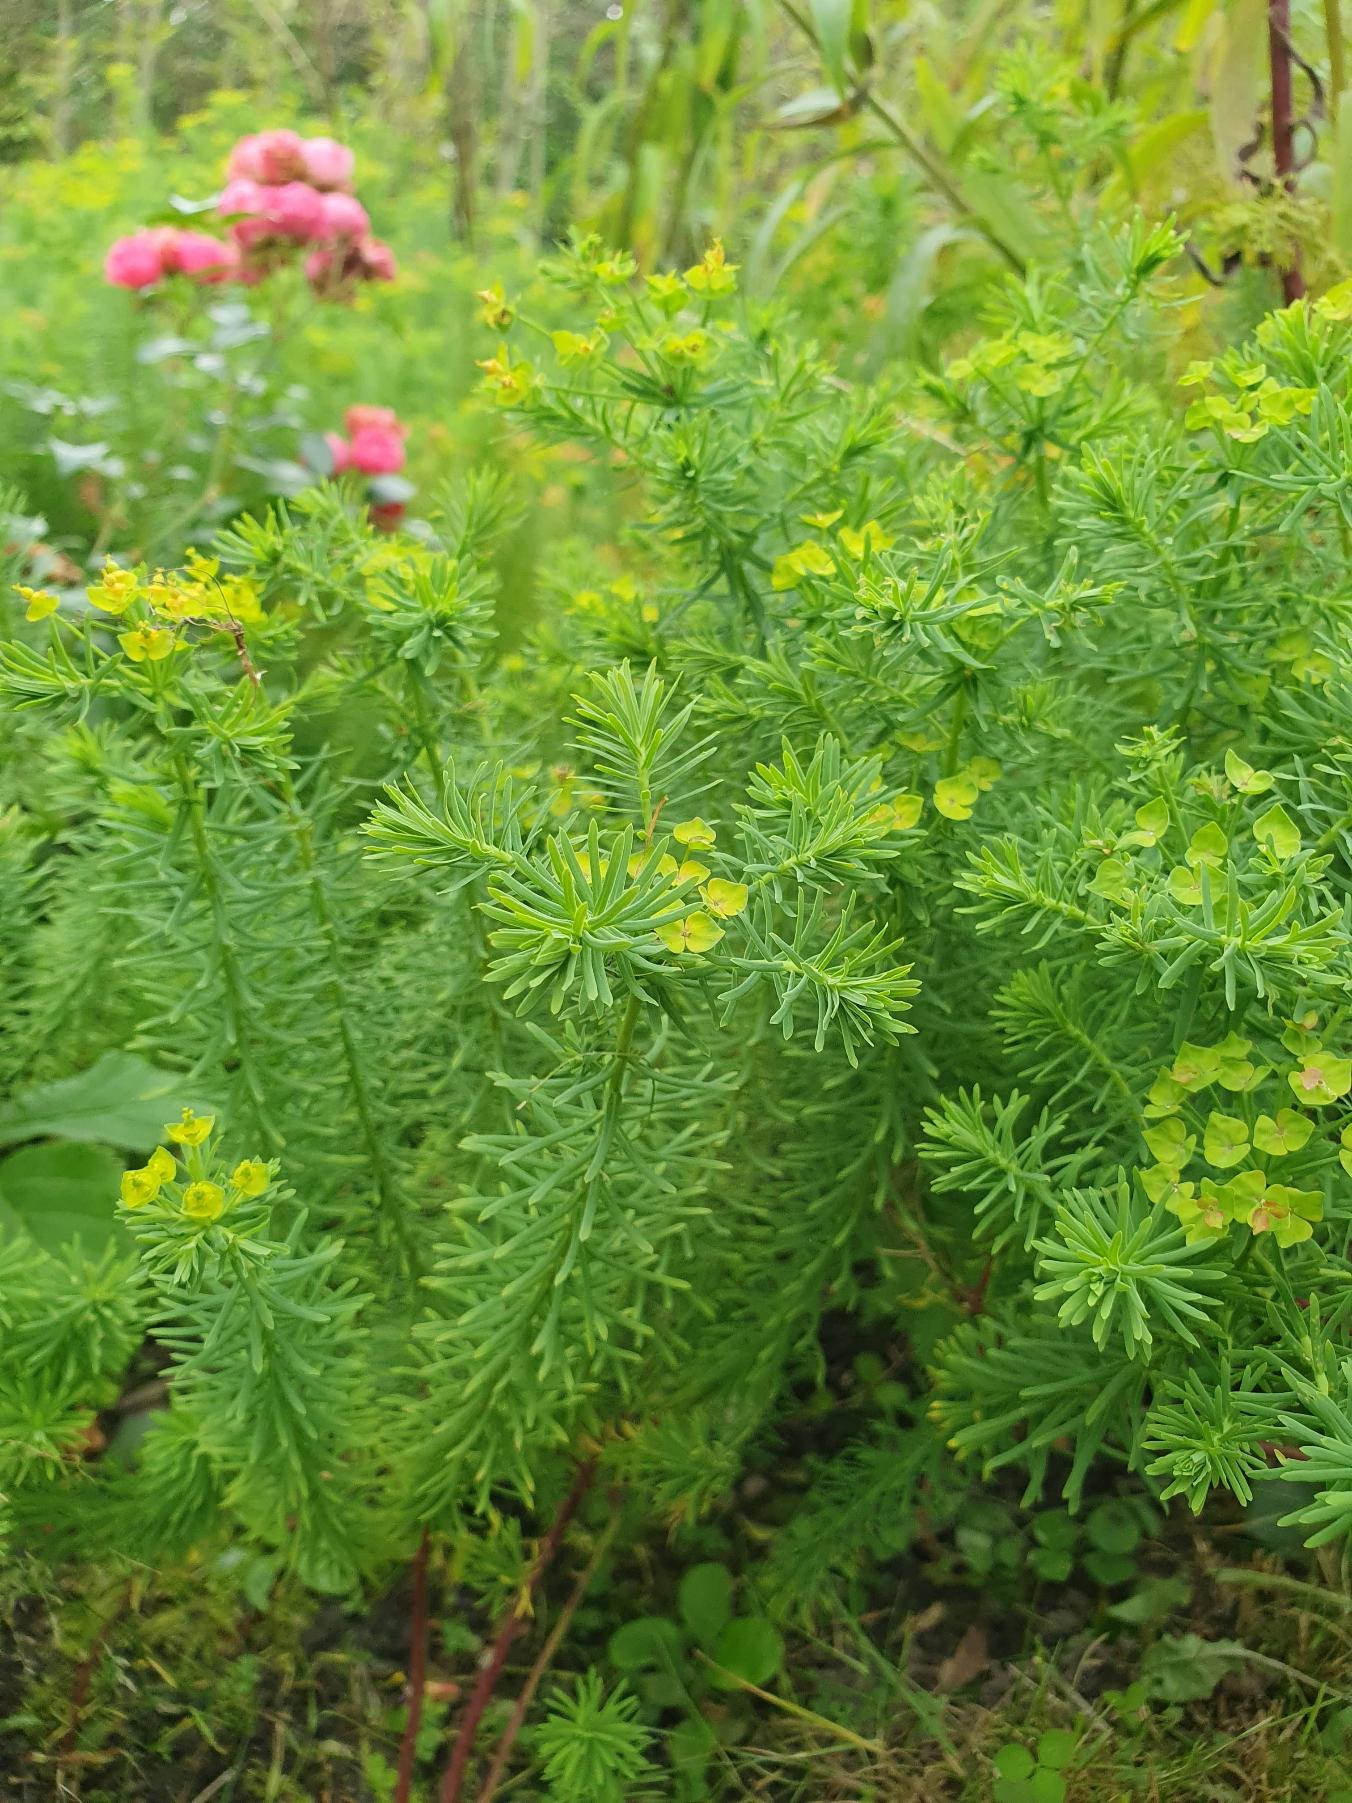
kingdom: Plantae
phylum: Tracheophyta
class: Magnoliopsida
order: Malpighiales
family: Euphorbiaceae
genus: Euphorbia
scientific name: Euphorbia cyparissias
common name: Cypres-vortemælk
